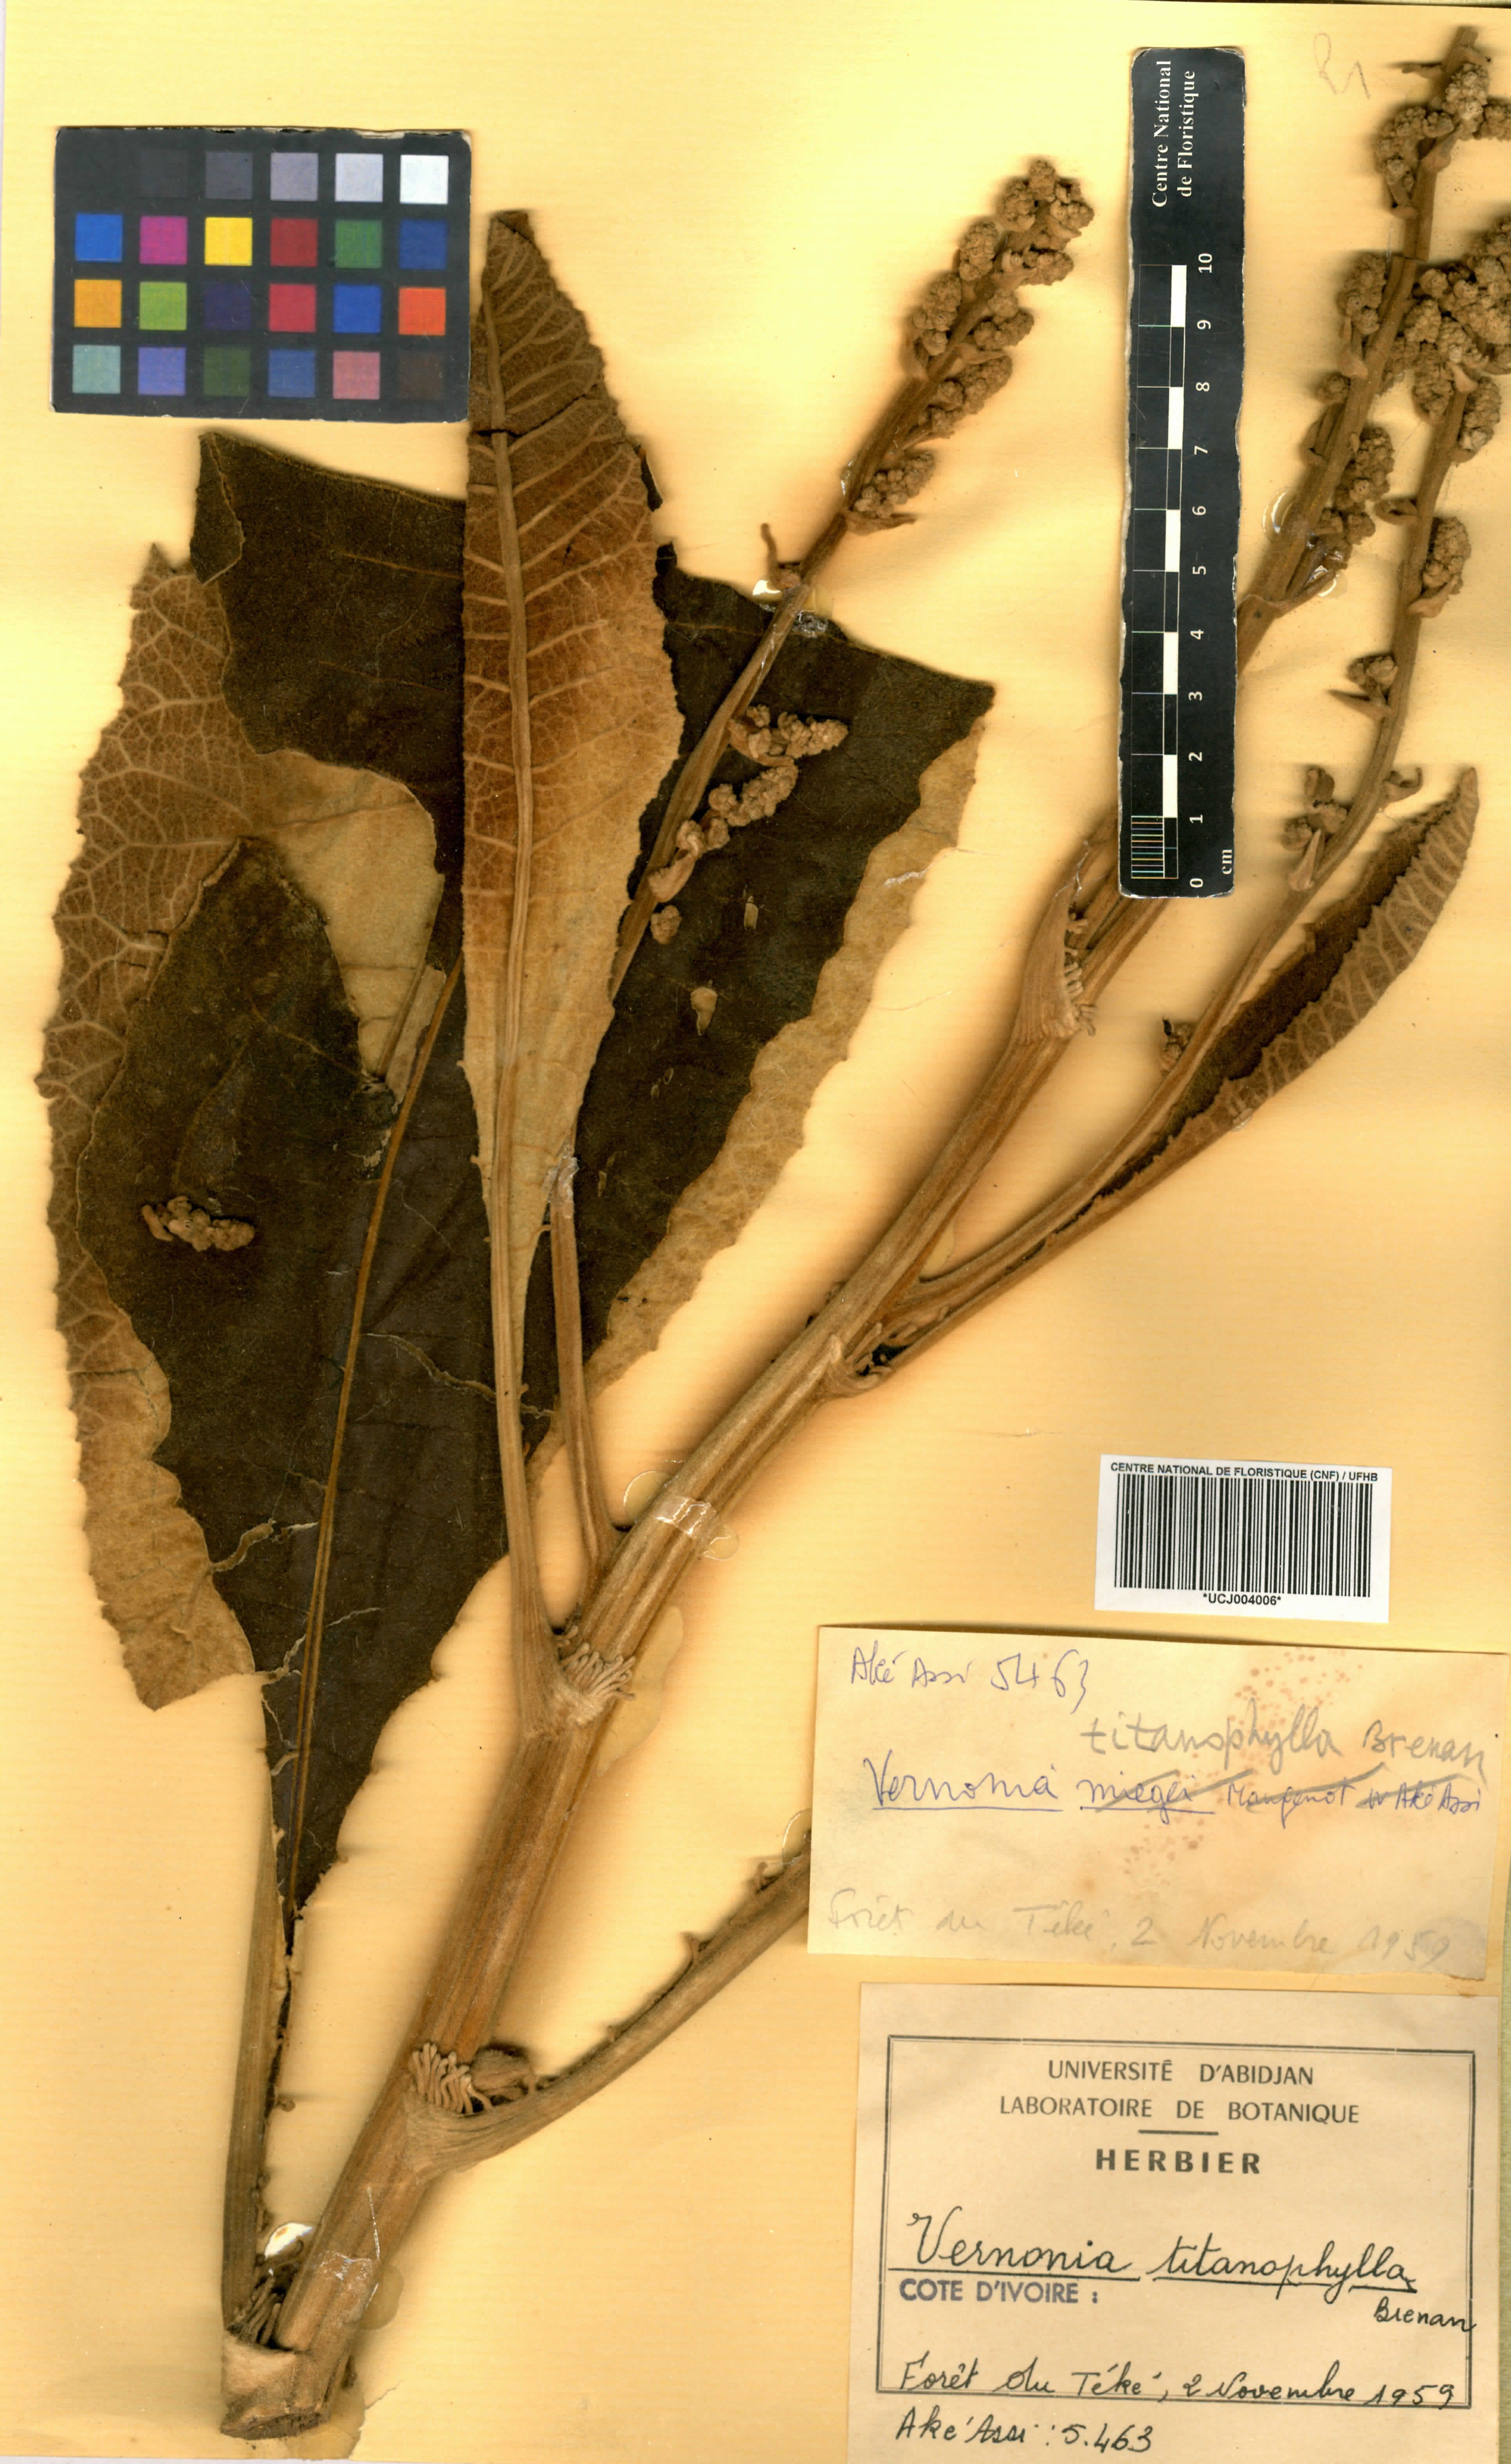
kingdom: Plantae
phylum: Tracheophyta
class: Magnoliopsida
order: Asterales
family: Asteraceae
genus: Brenandendron
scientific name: Brenandendron titanophyllum
